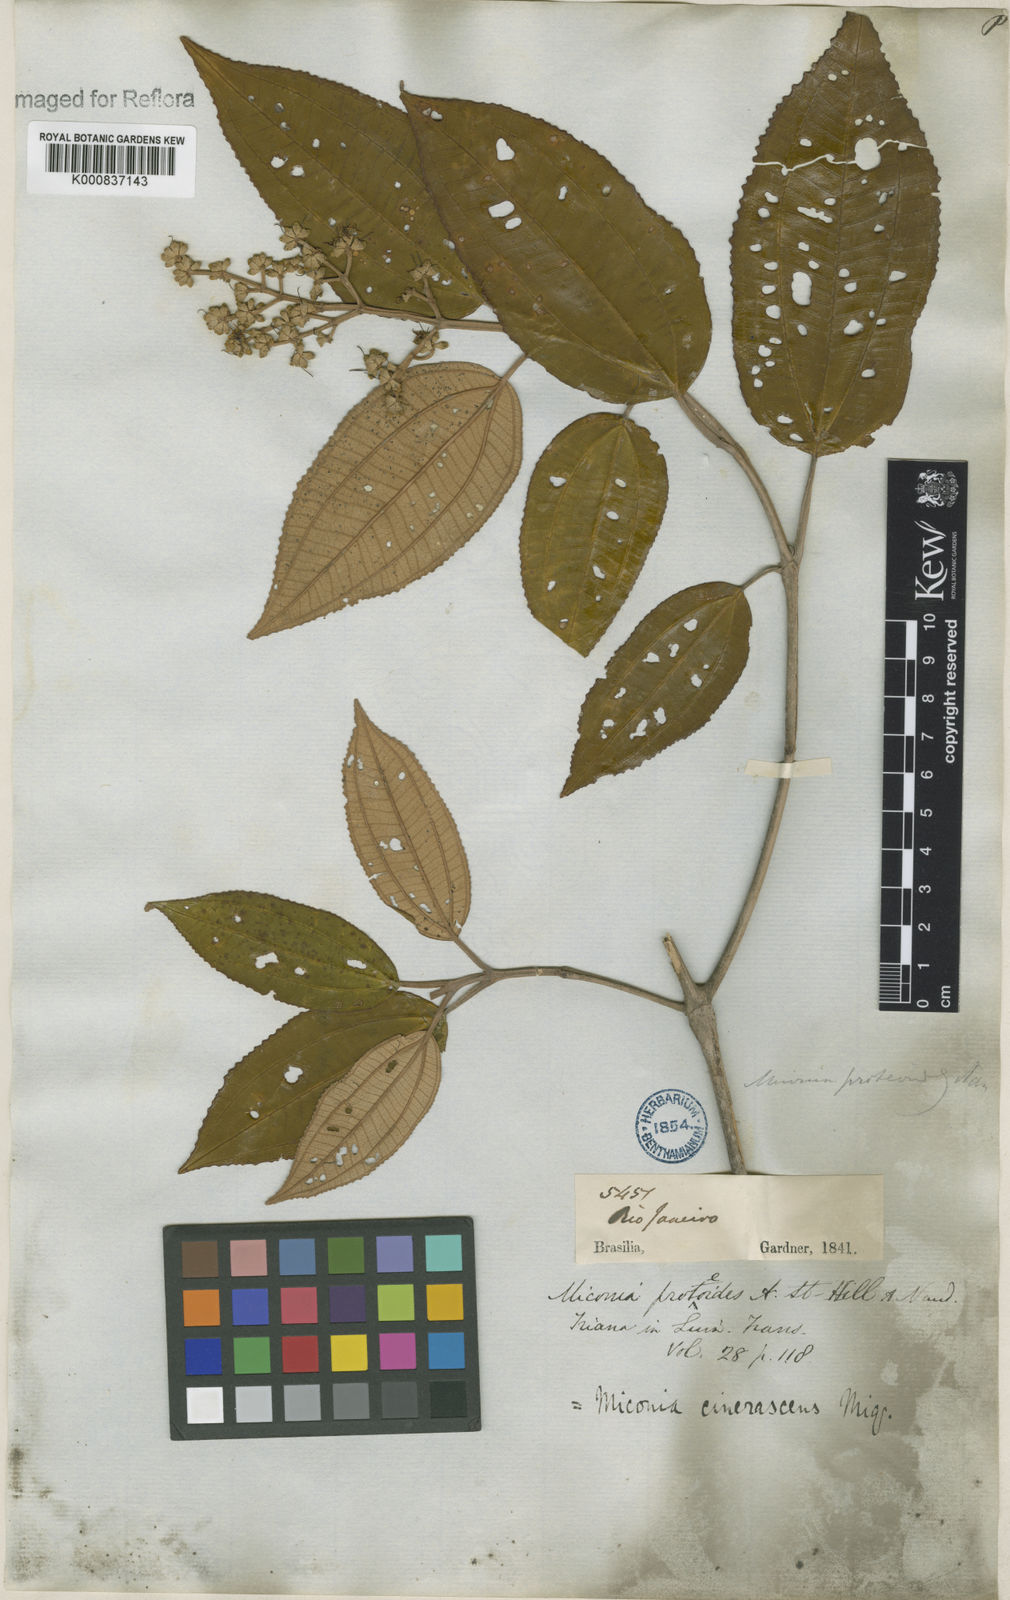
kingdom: Plantae
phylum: Tracheophyta
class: Magnoliopsida
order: Myrtales
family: Melastomataceae
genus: Miconia
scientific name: Miconia cinerascens
